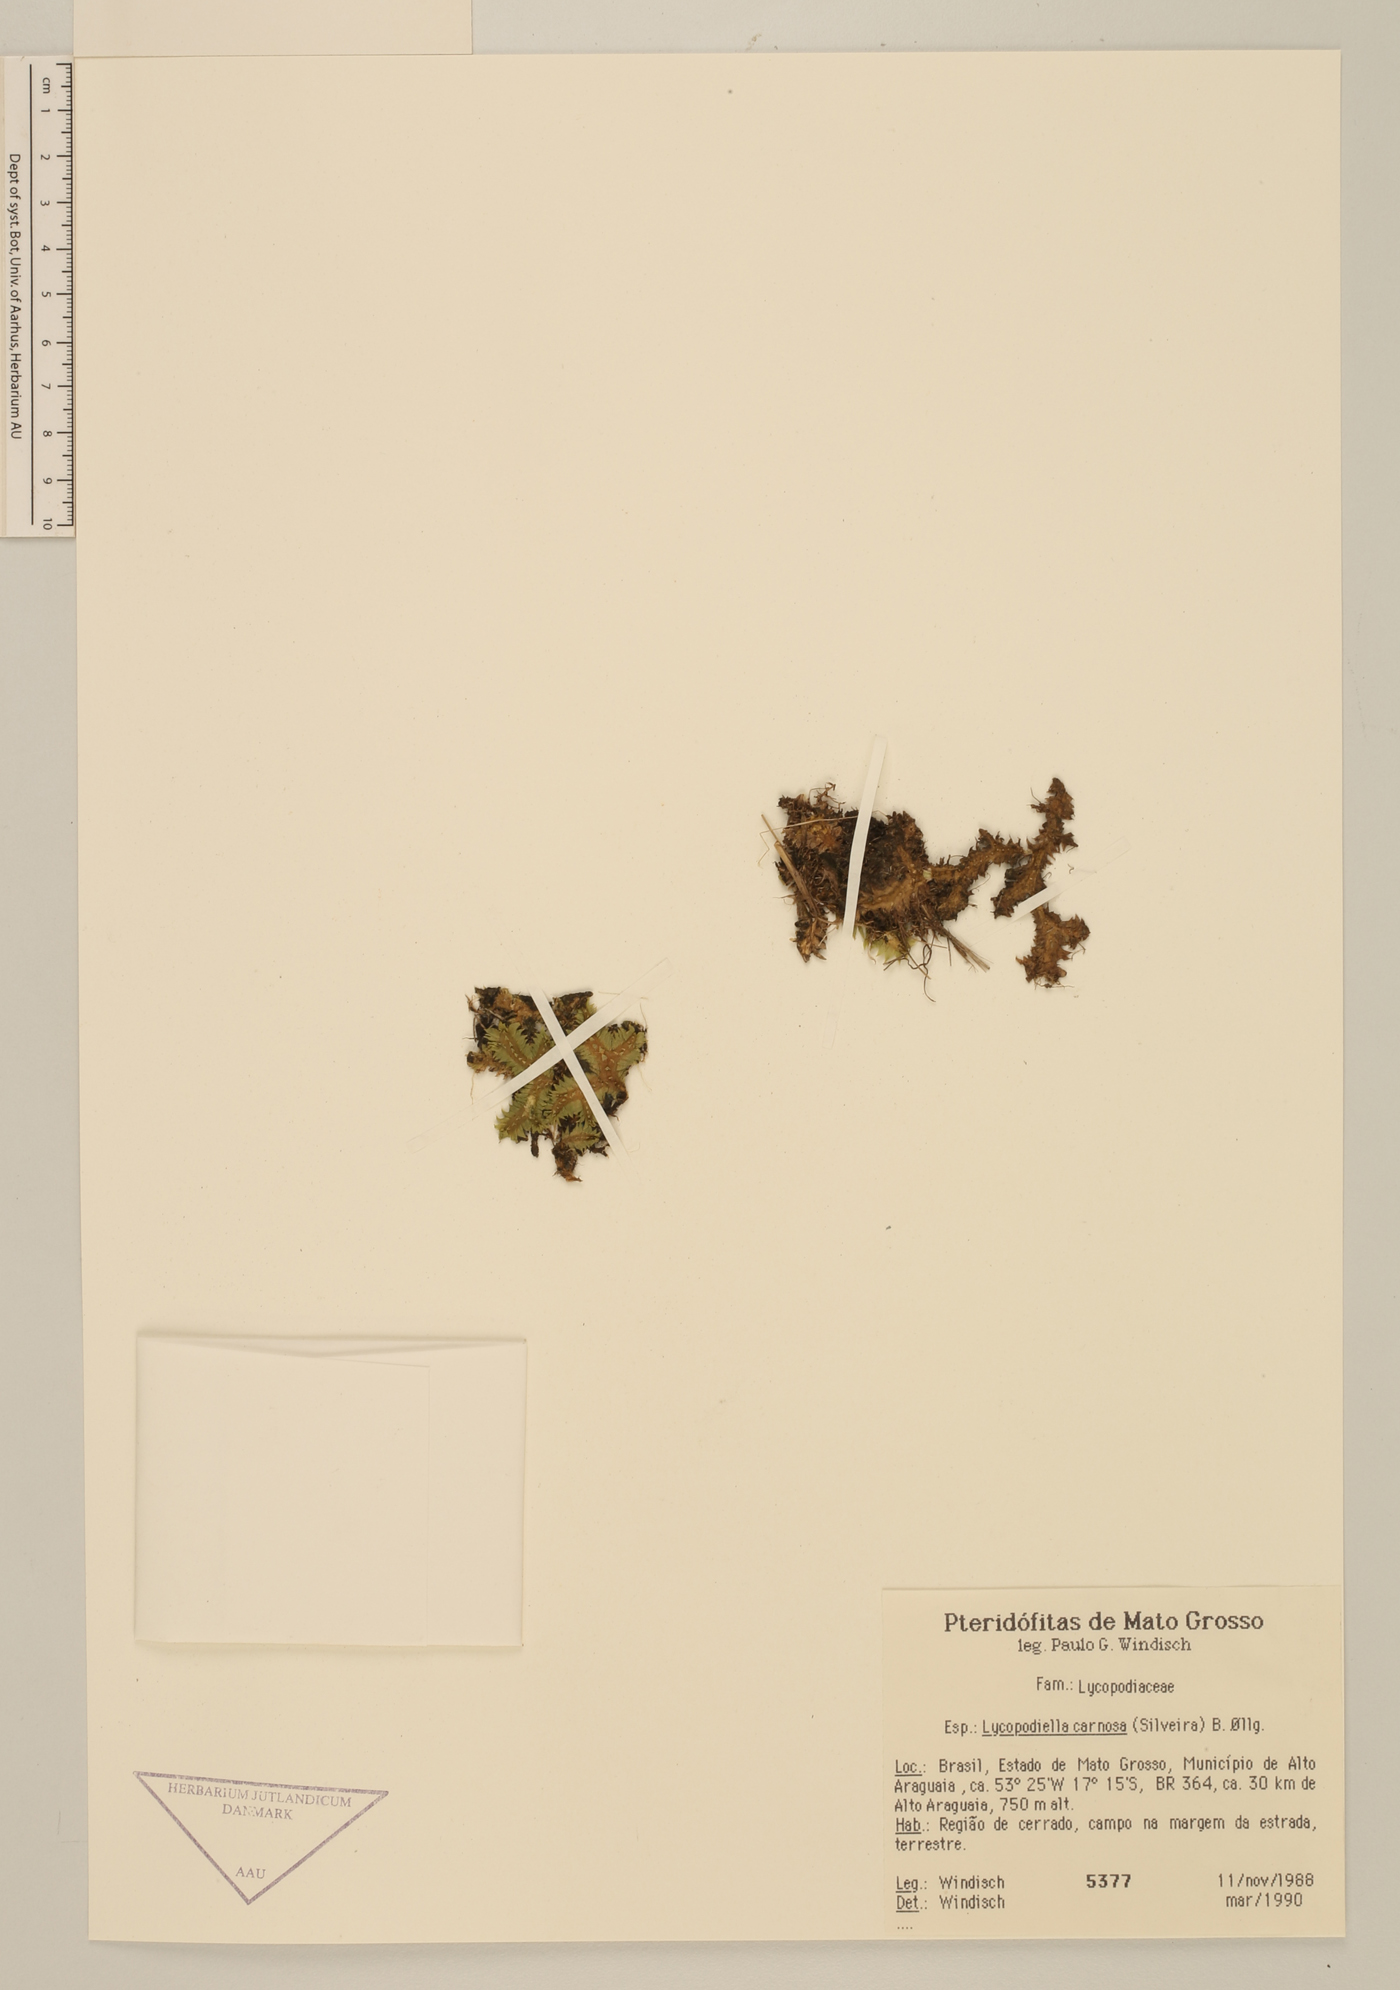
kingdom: Plantae
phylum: Tracheophyta
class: Lycopodiopsida
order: Lycopodiales
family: Lycopodiaceae
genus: Pseudolycopodiella
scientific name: Pseudolycopodiella carnosa
